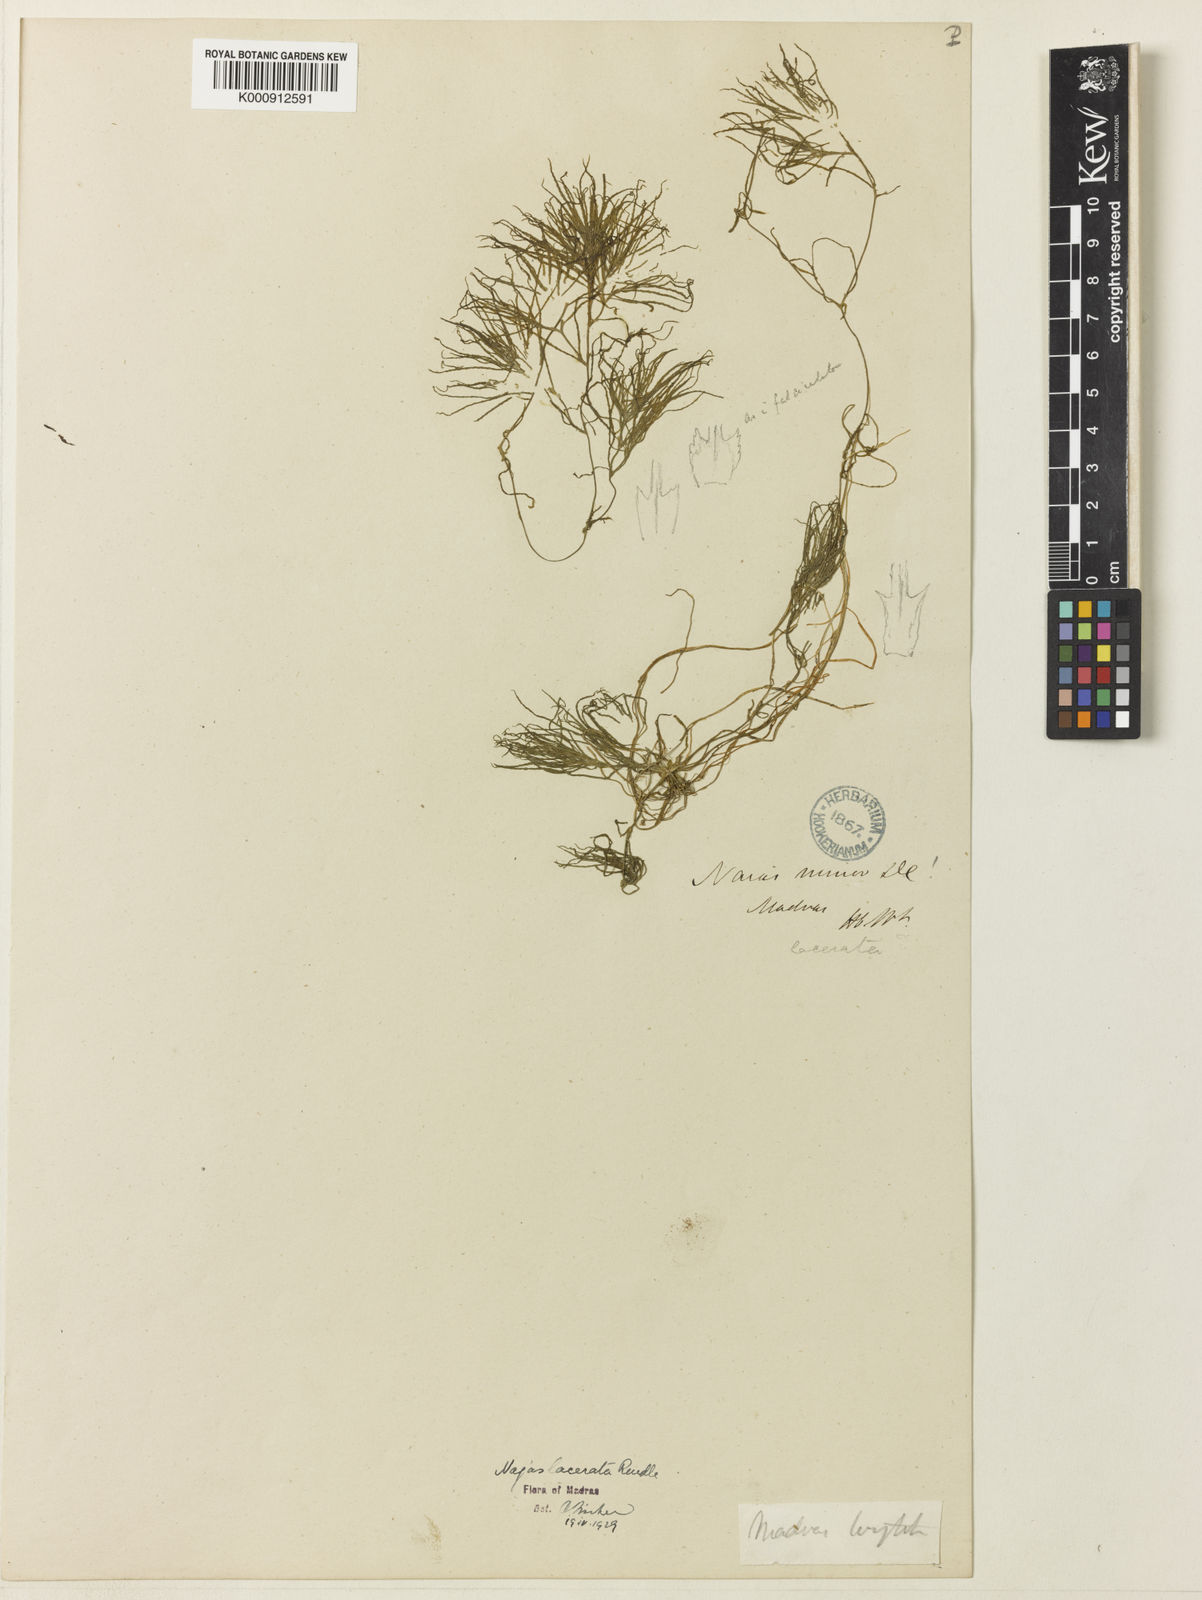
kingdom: Plantae
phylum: Tracheophyta
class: Liliopsida
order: Alismatales
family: Hydrocharitaceae
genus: Najas
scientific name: Najas indica
